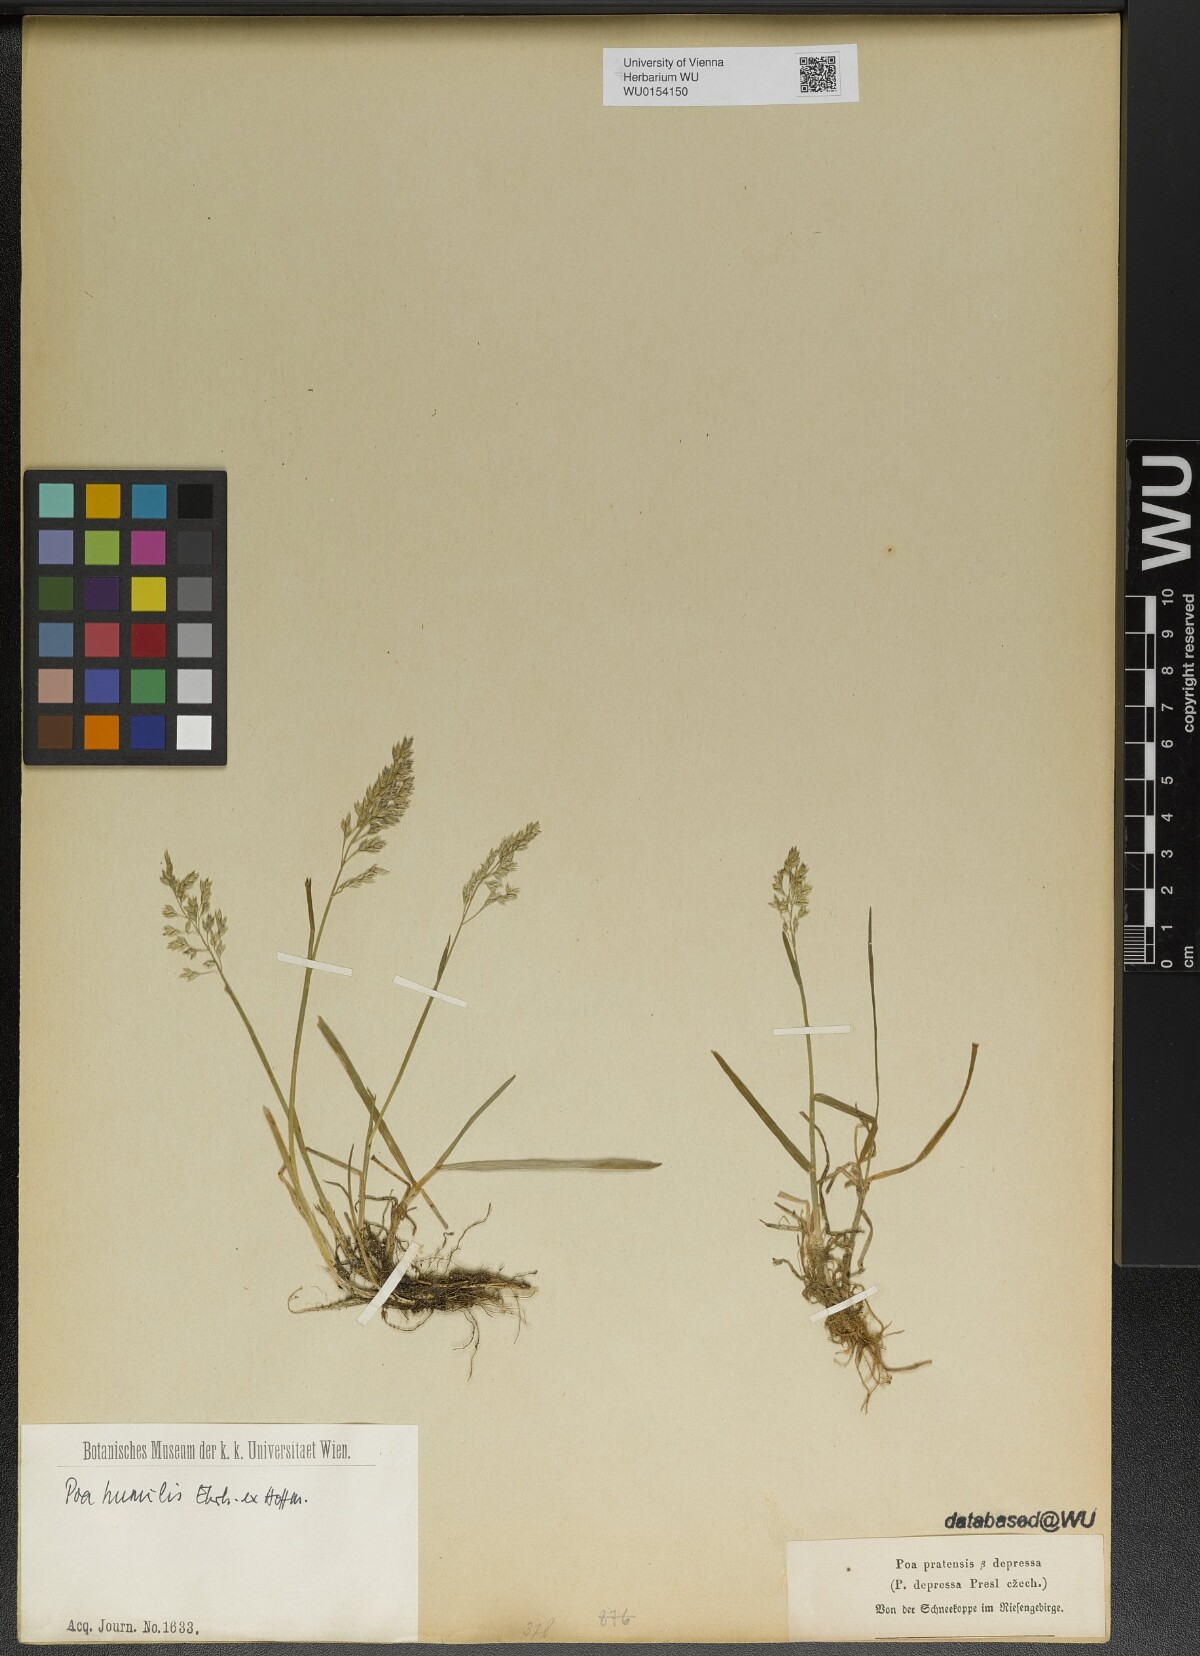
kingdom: Plantae
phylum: Tracheophyta
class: Liliopsida
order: Poales
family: Poaceae
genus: Poa
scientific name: Poa humilis
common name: Spreading meadow-grass
